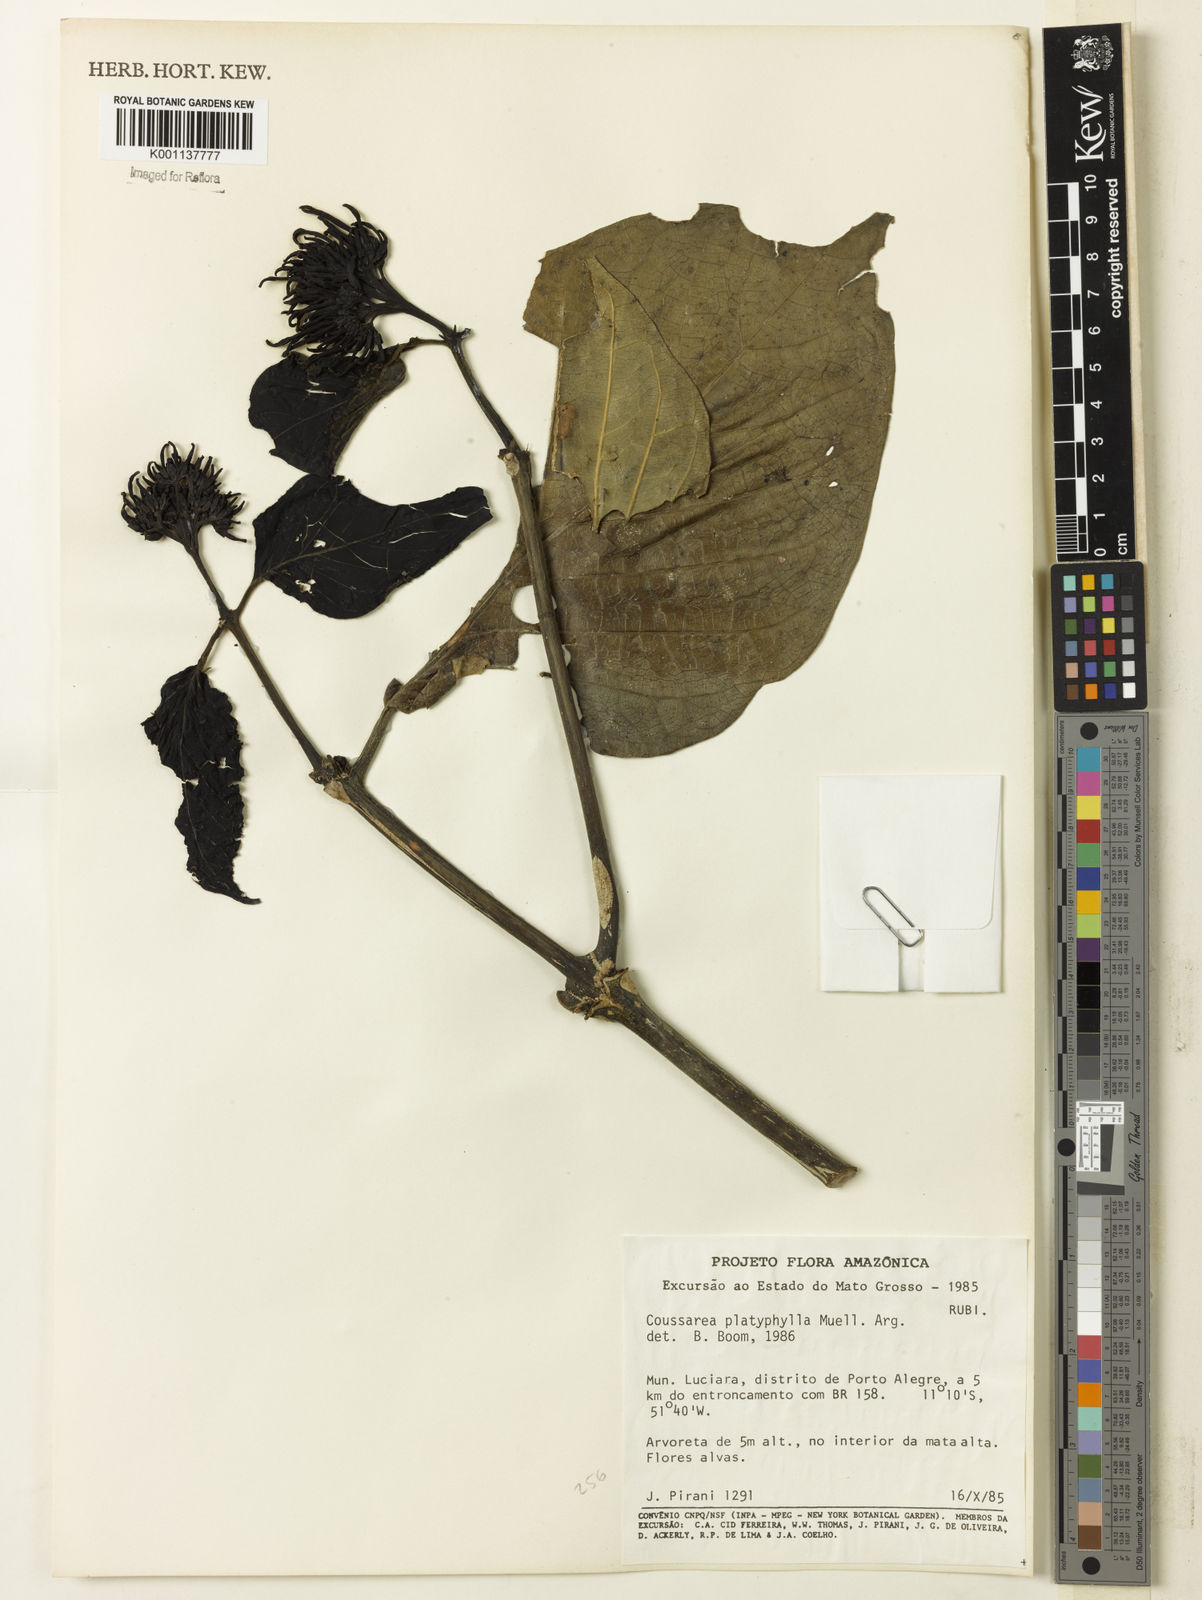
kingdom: Plantae
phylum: Tracheophyta
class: Magnoliopsida
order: Gentianales
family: Rubiaceae
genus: Coussarea
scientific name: Coussarea
